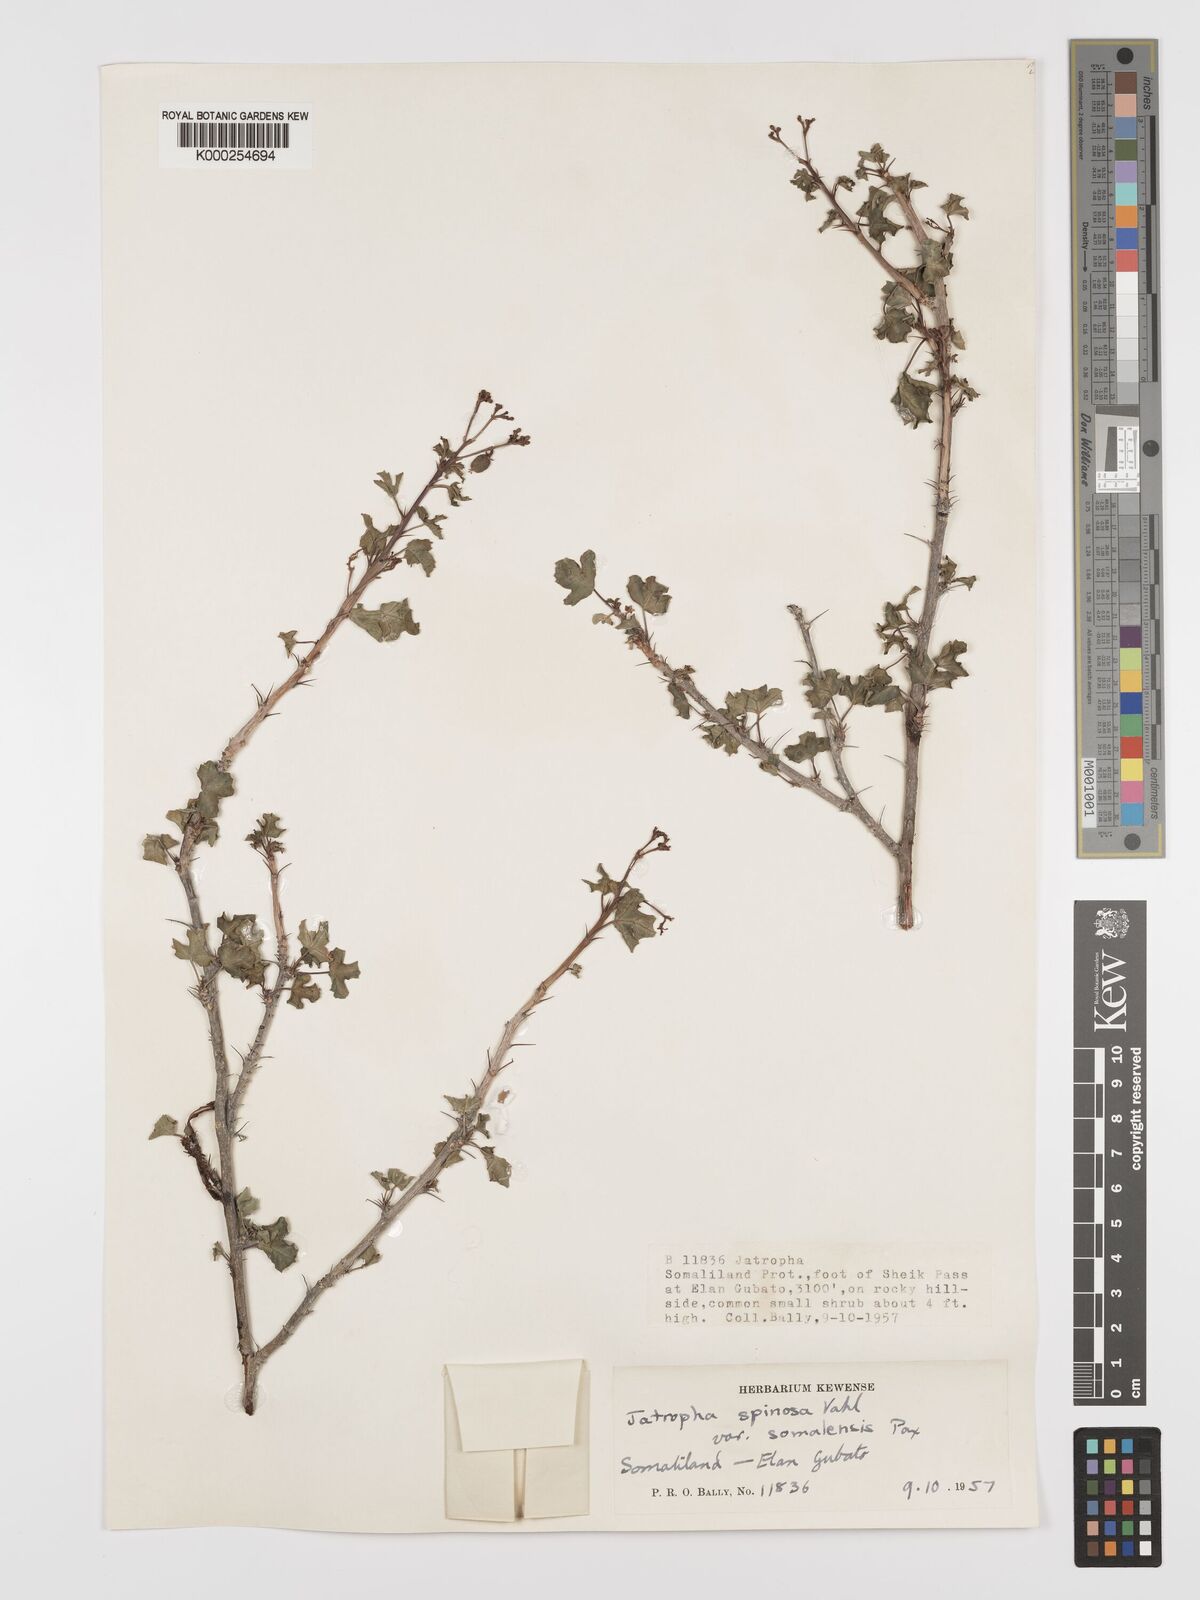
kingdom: Plantae
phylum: Tracheophyta
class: Magnoliopsida
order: Malpighiales
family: Euphorbiaceae
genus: Jatropha
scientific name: Jatropha spinosa
